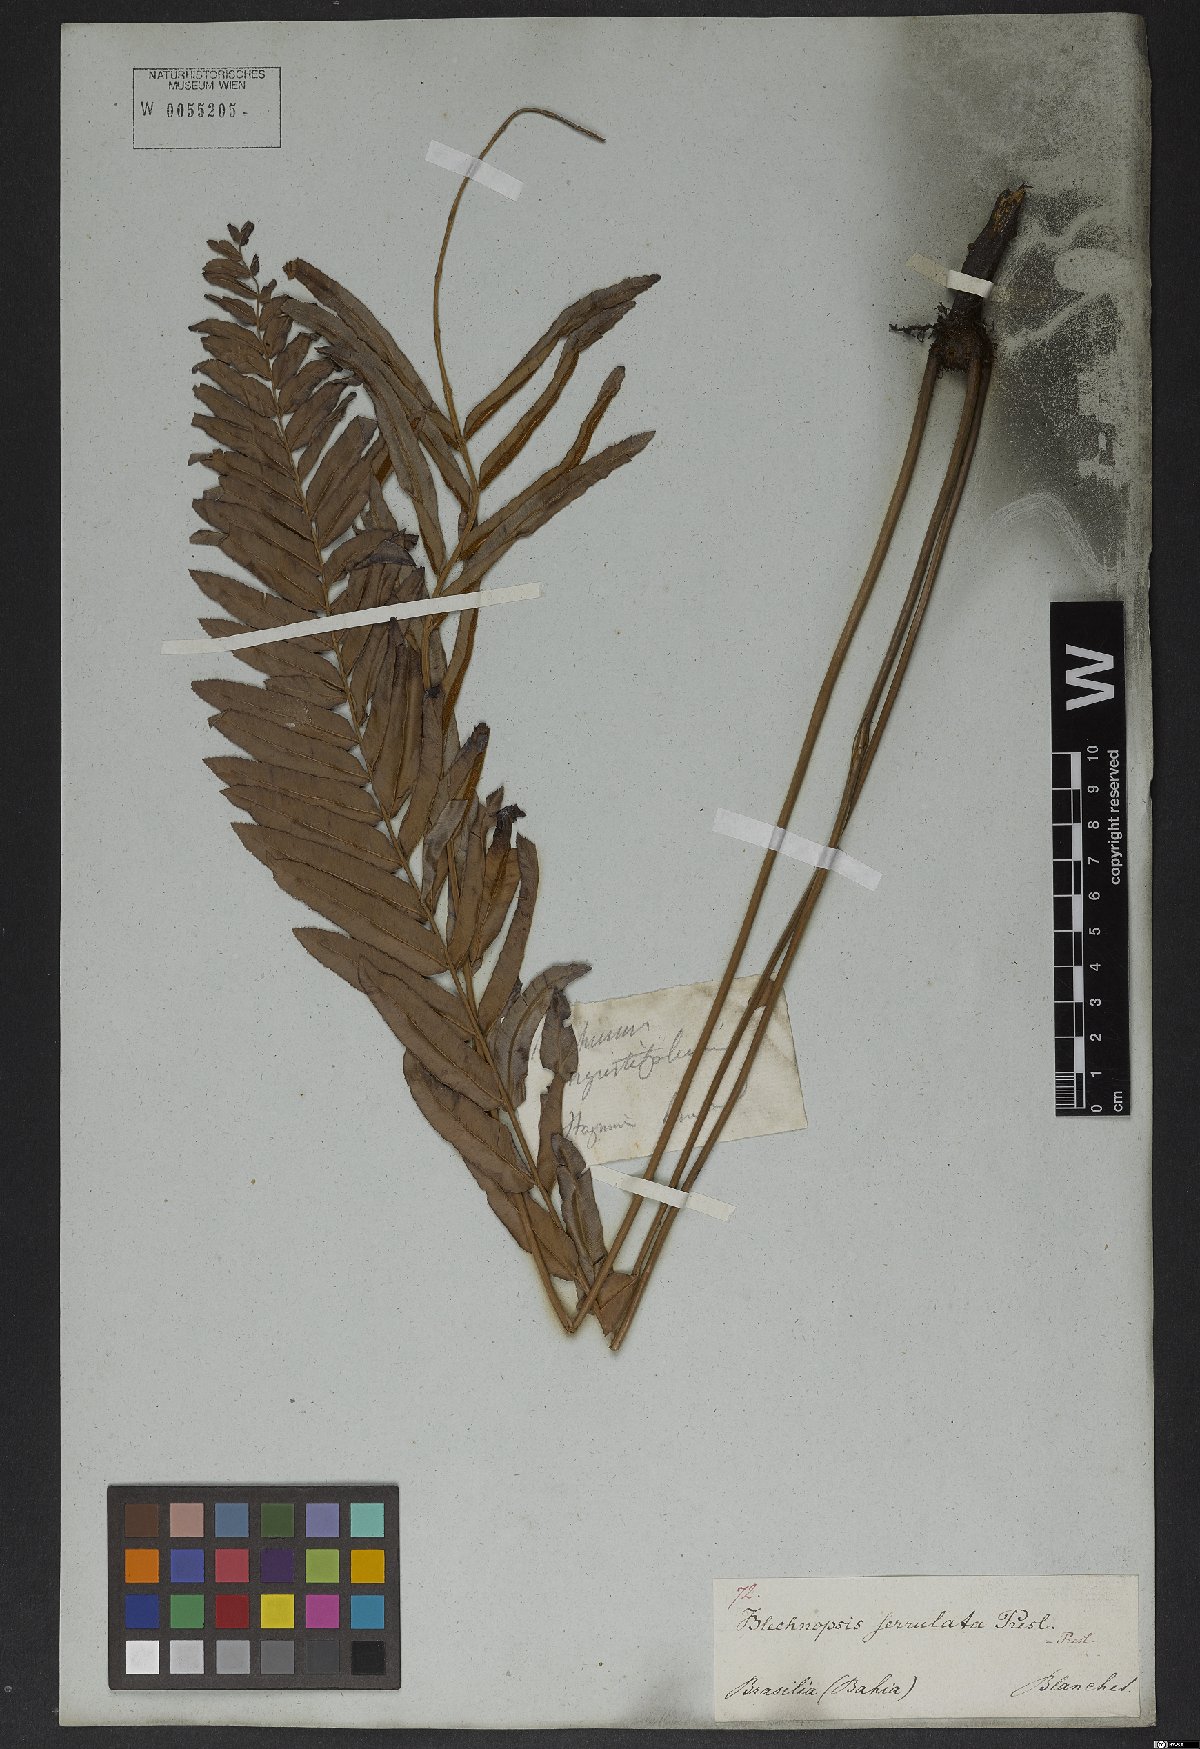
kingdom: Plantae
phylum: Tracheophyta
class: Polypodiopsida
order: Polypodiales
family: Blechnaceae
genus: Telmatoblechnum
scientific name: Telmatoblechnum serrulatum
